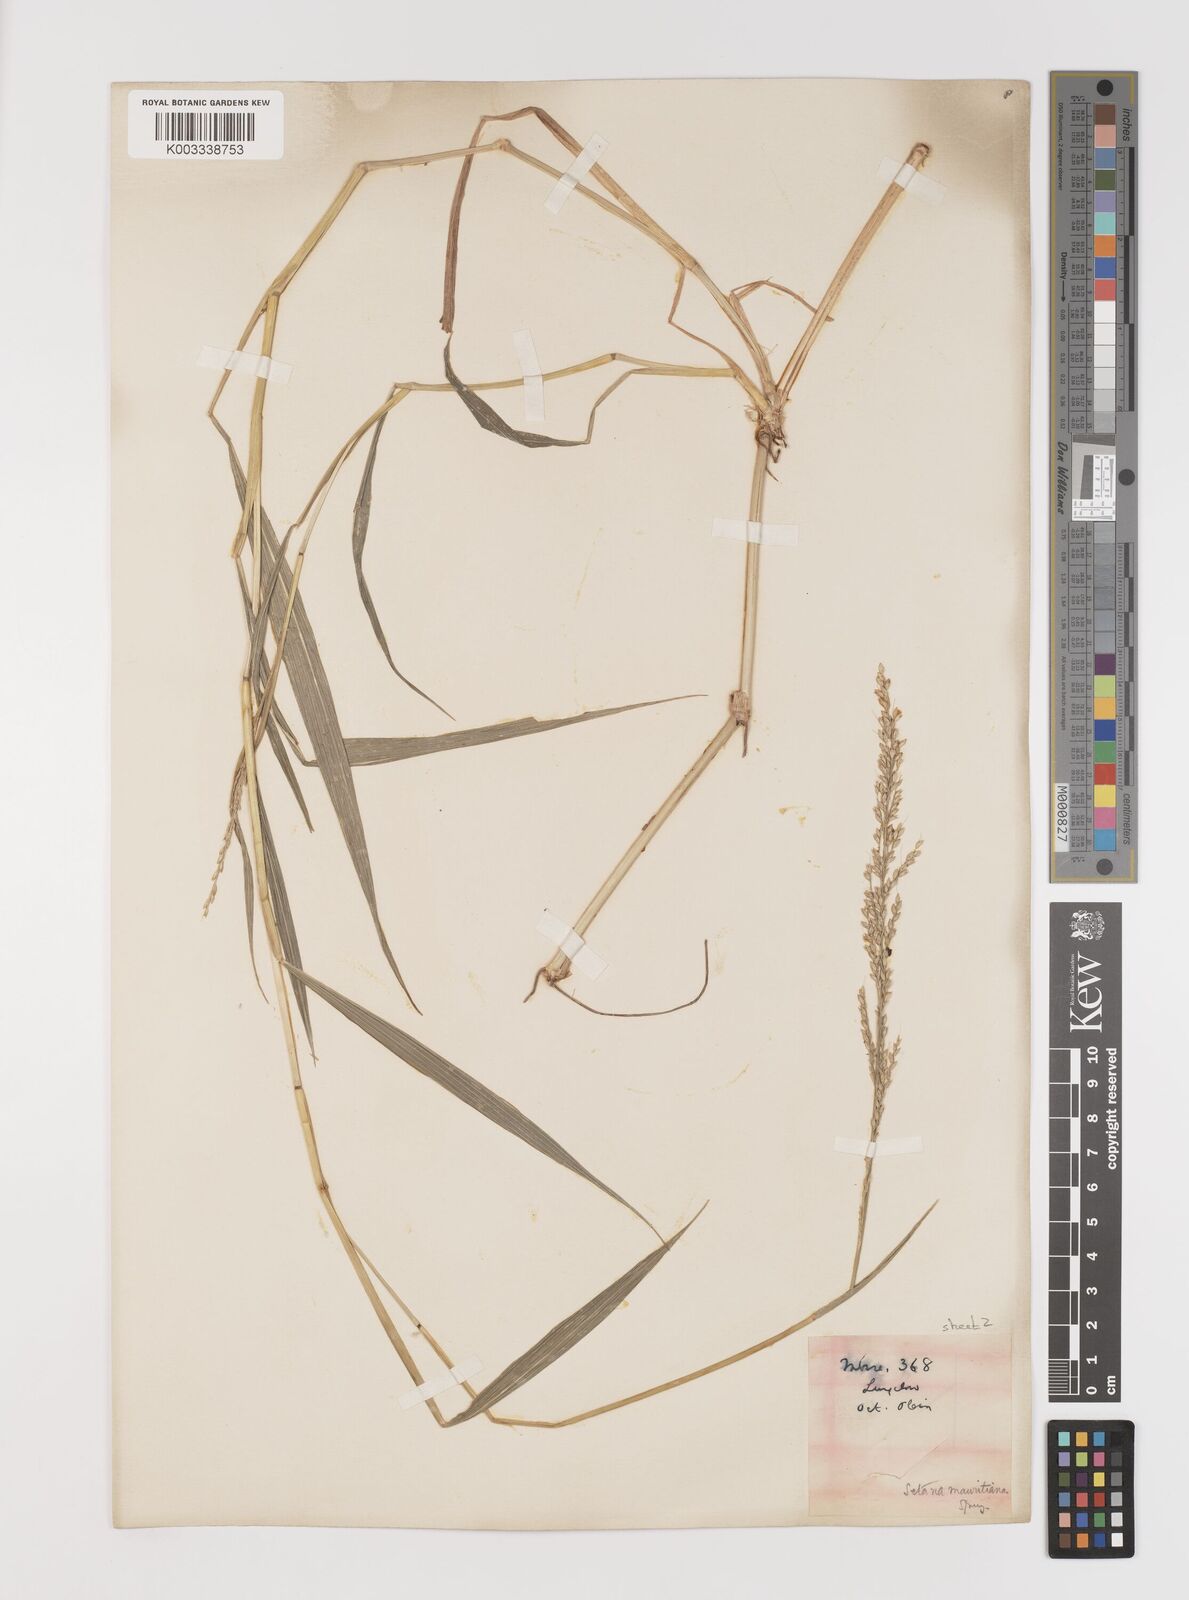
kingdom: Plantae
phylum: Tracheophyta
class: Liliopsida
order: Poales
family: Poaceae
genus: Setaria
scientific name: Setaria plicata
